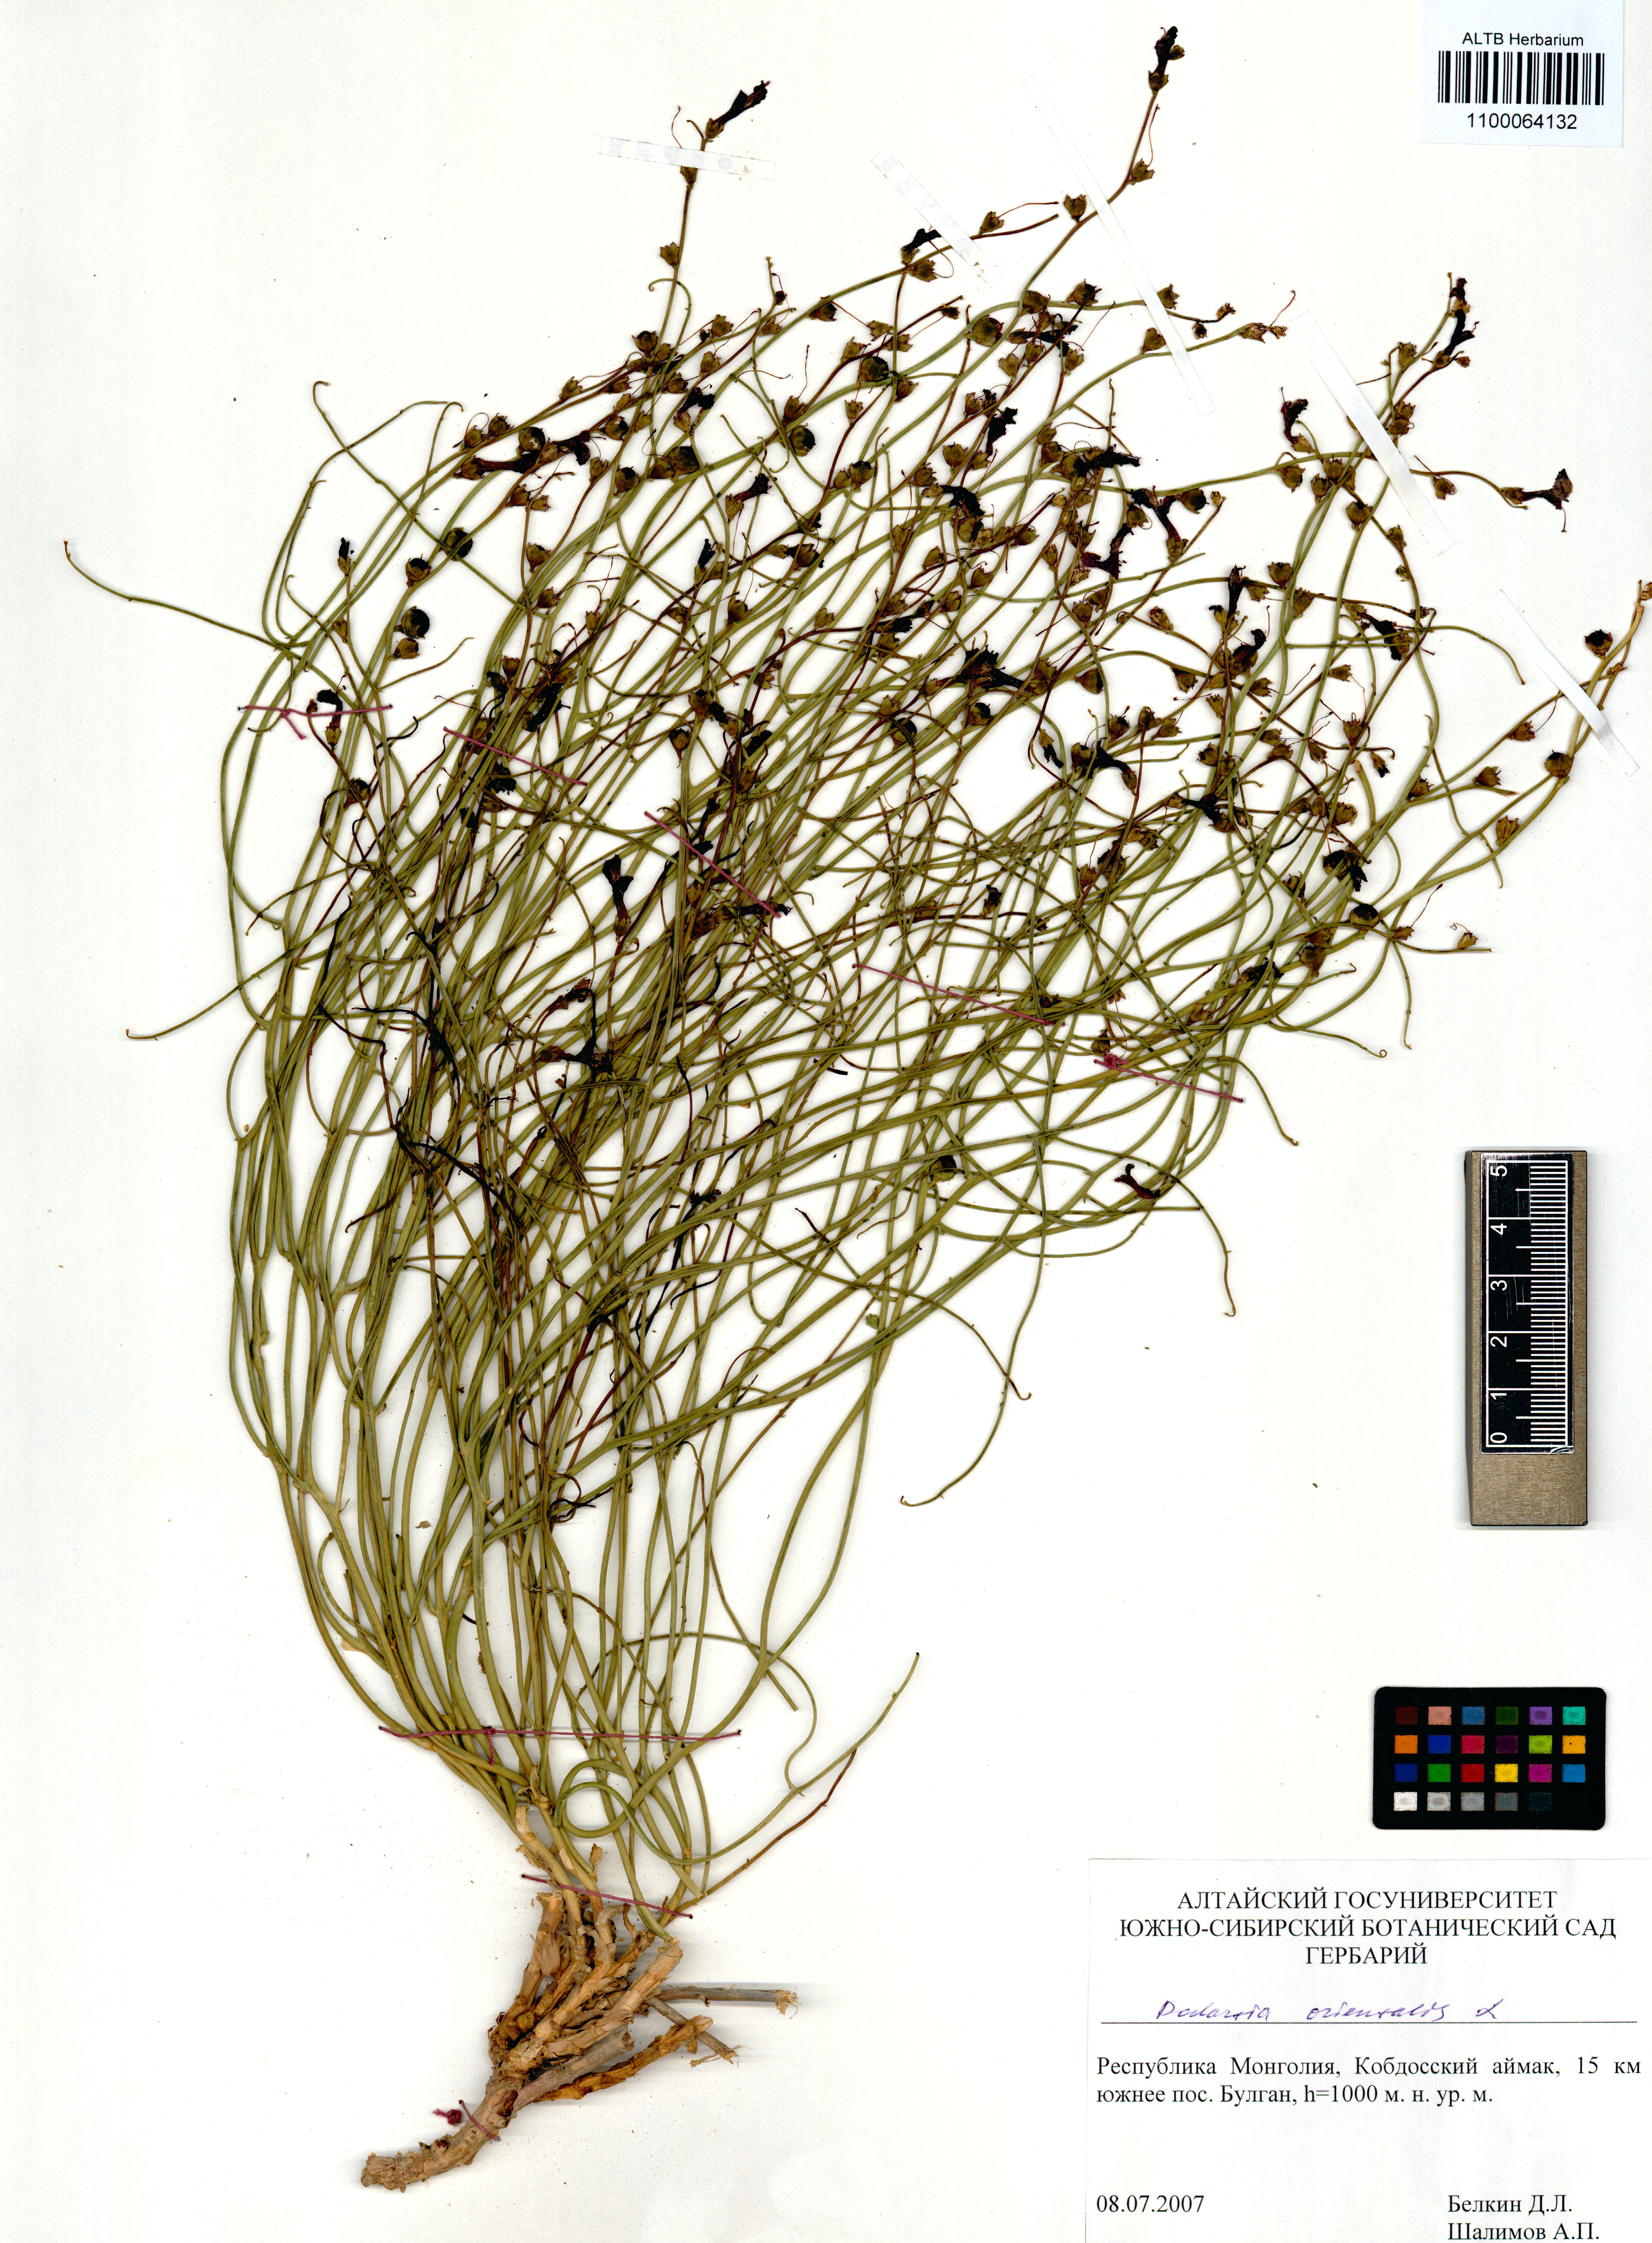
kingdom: Plantae
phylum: Tracheophyta
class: Magnoliopsida
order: Lamiales
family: Mazaceae
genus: Dodartia
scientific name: Dodartia orientalis
